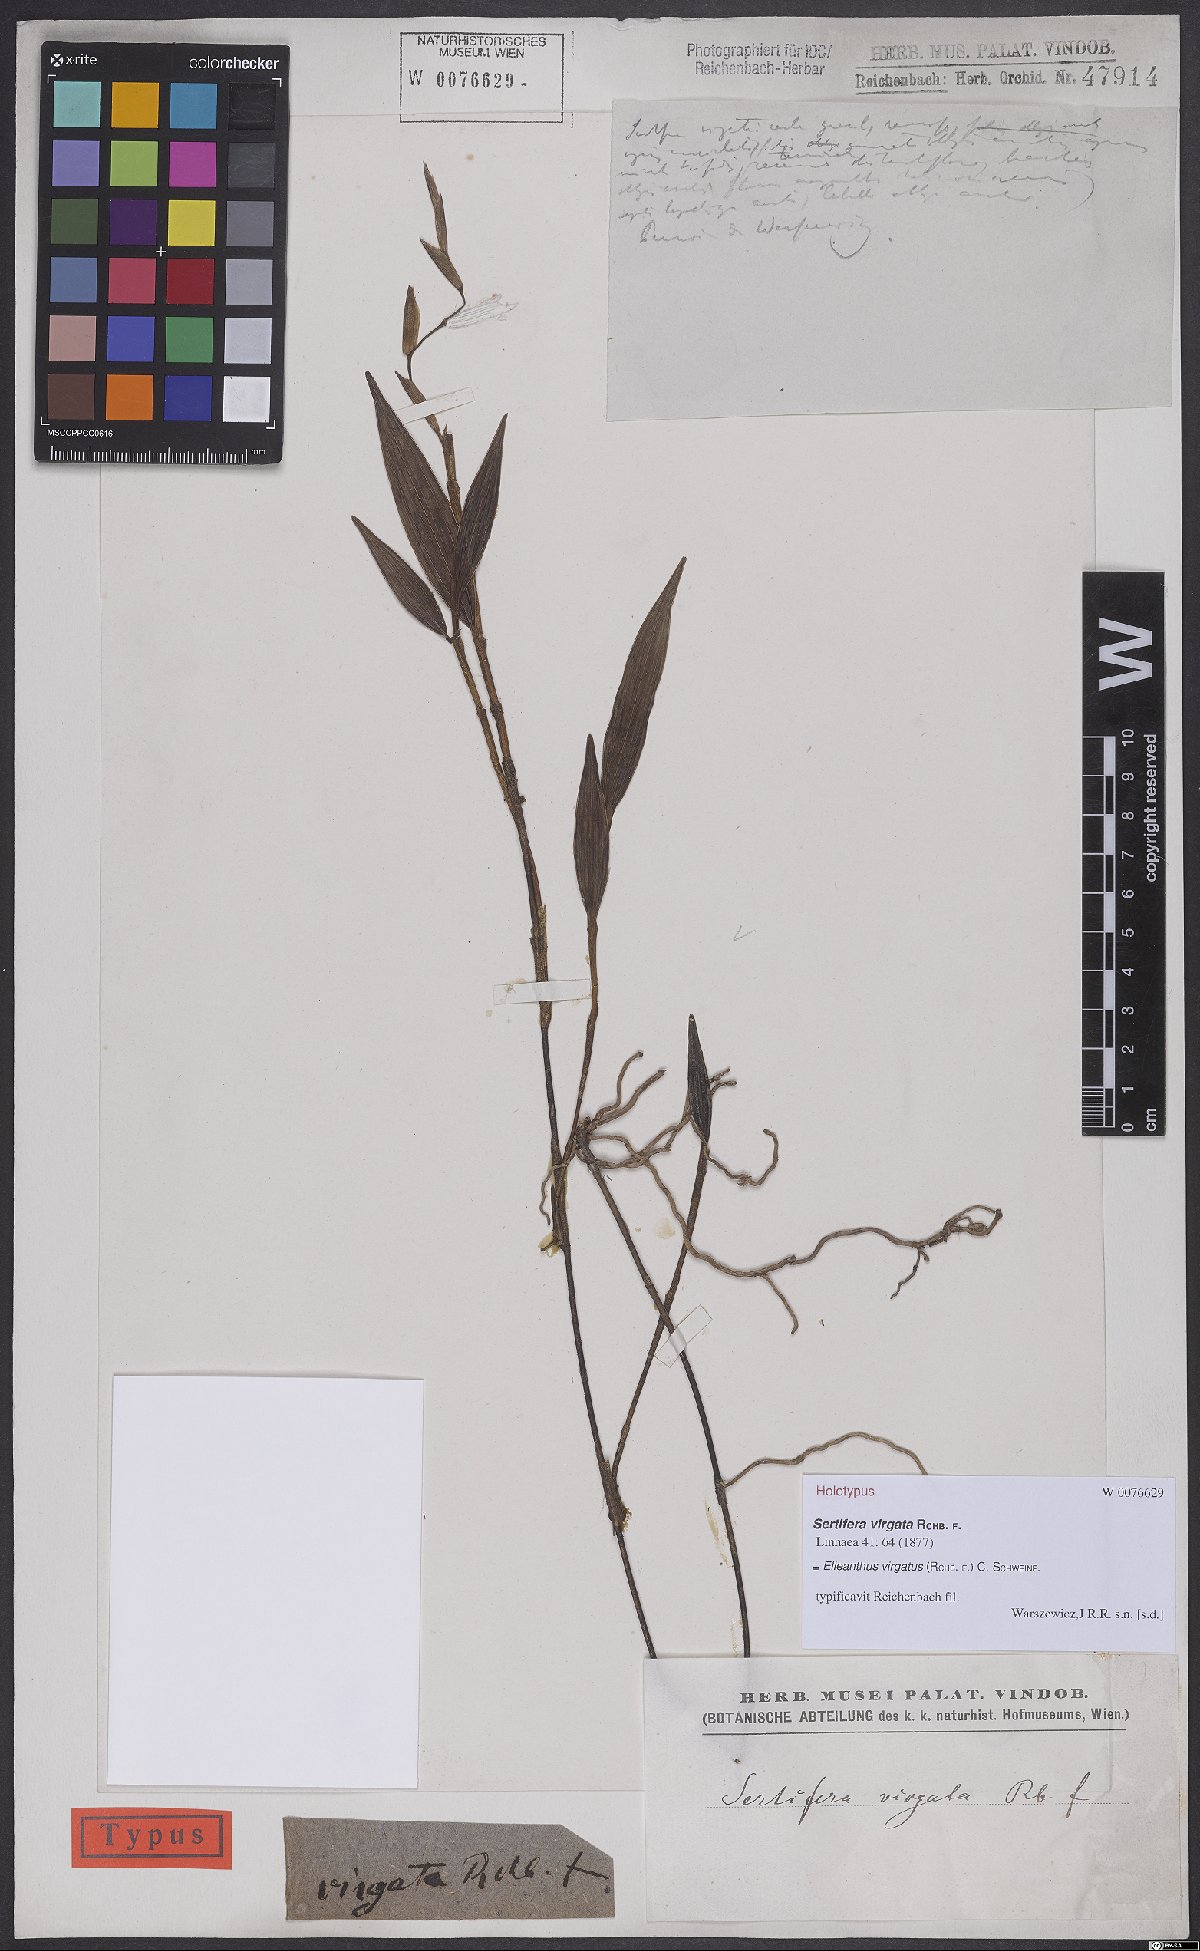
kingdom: Plantae
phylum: Tracheophyta
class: Liliopsida
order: Asparagales
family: Orchidaceae
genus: Elleanthus
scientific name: Elleanthus virgatus
